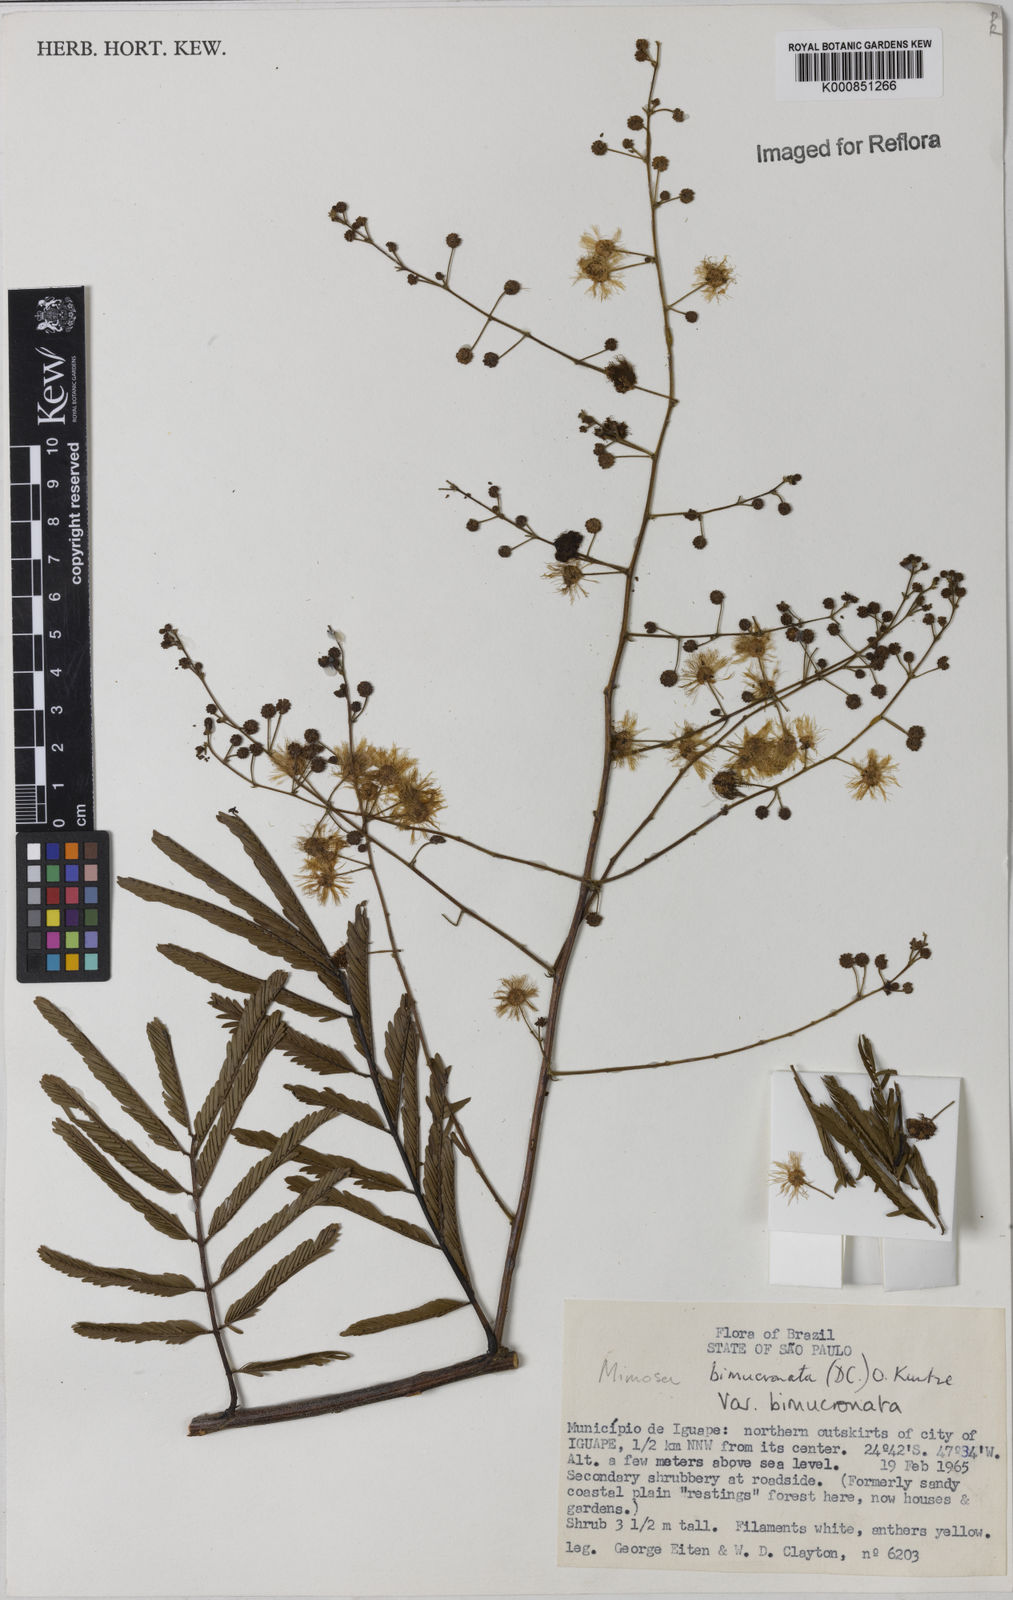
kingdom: Plantae
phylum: Tracheophyta
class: Magnoliopsida
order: Fabales
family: Fabaceae
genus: Mimosa
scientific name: Mimosa bimucronata
